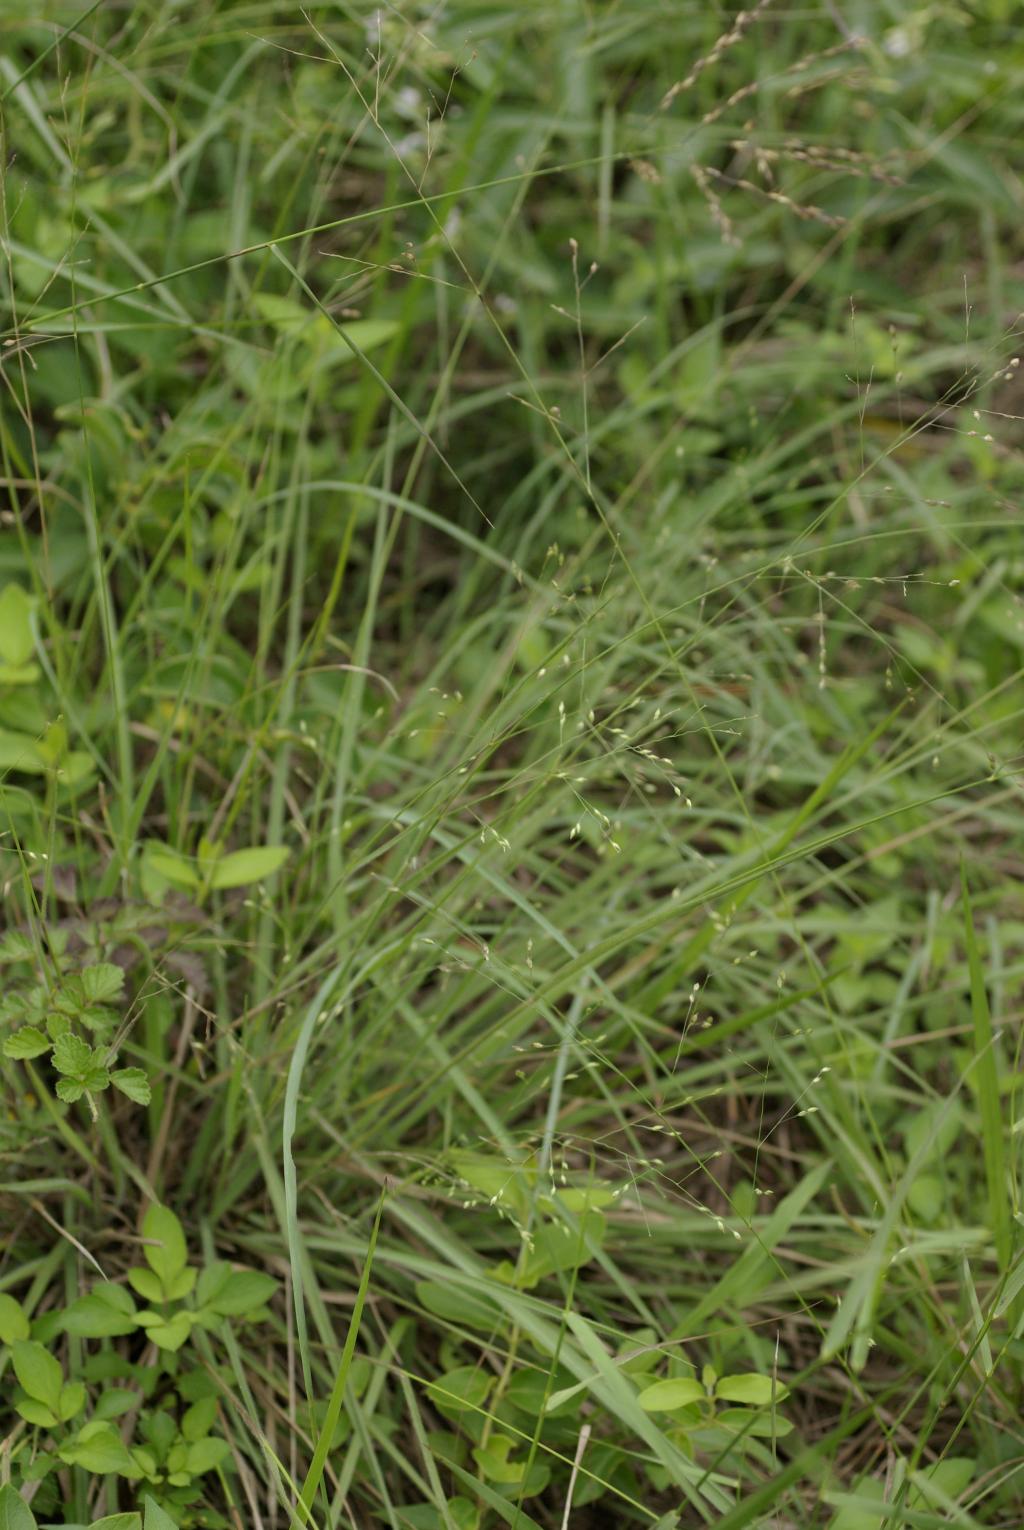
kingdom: Plantae
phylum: Tracheophyta
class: Liliopsida
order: Poales
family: Poaceae
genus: Panicum
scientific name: Panicum curviflorum
